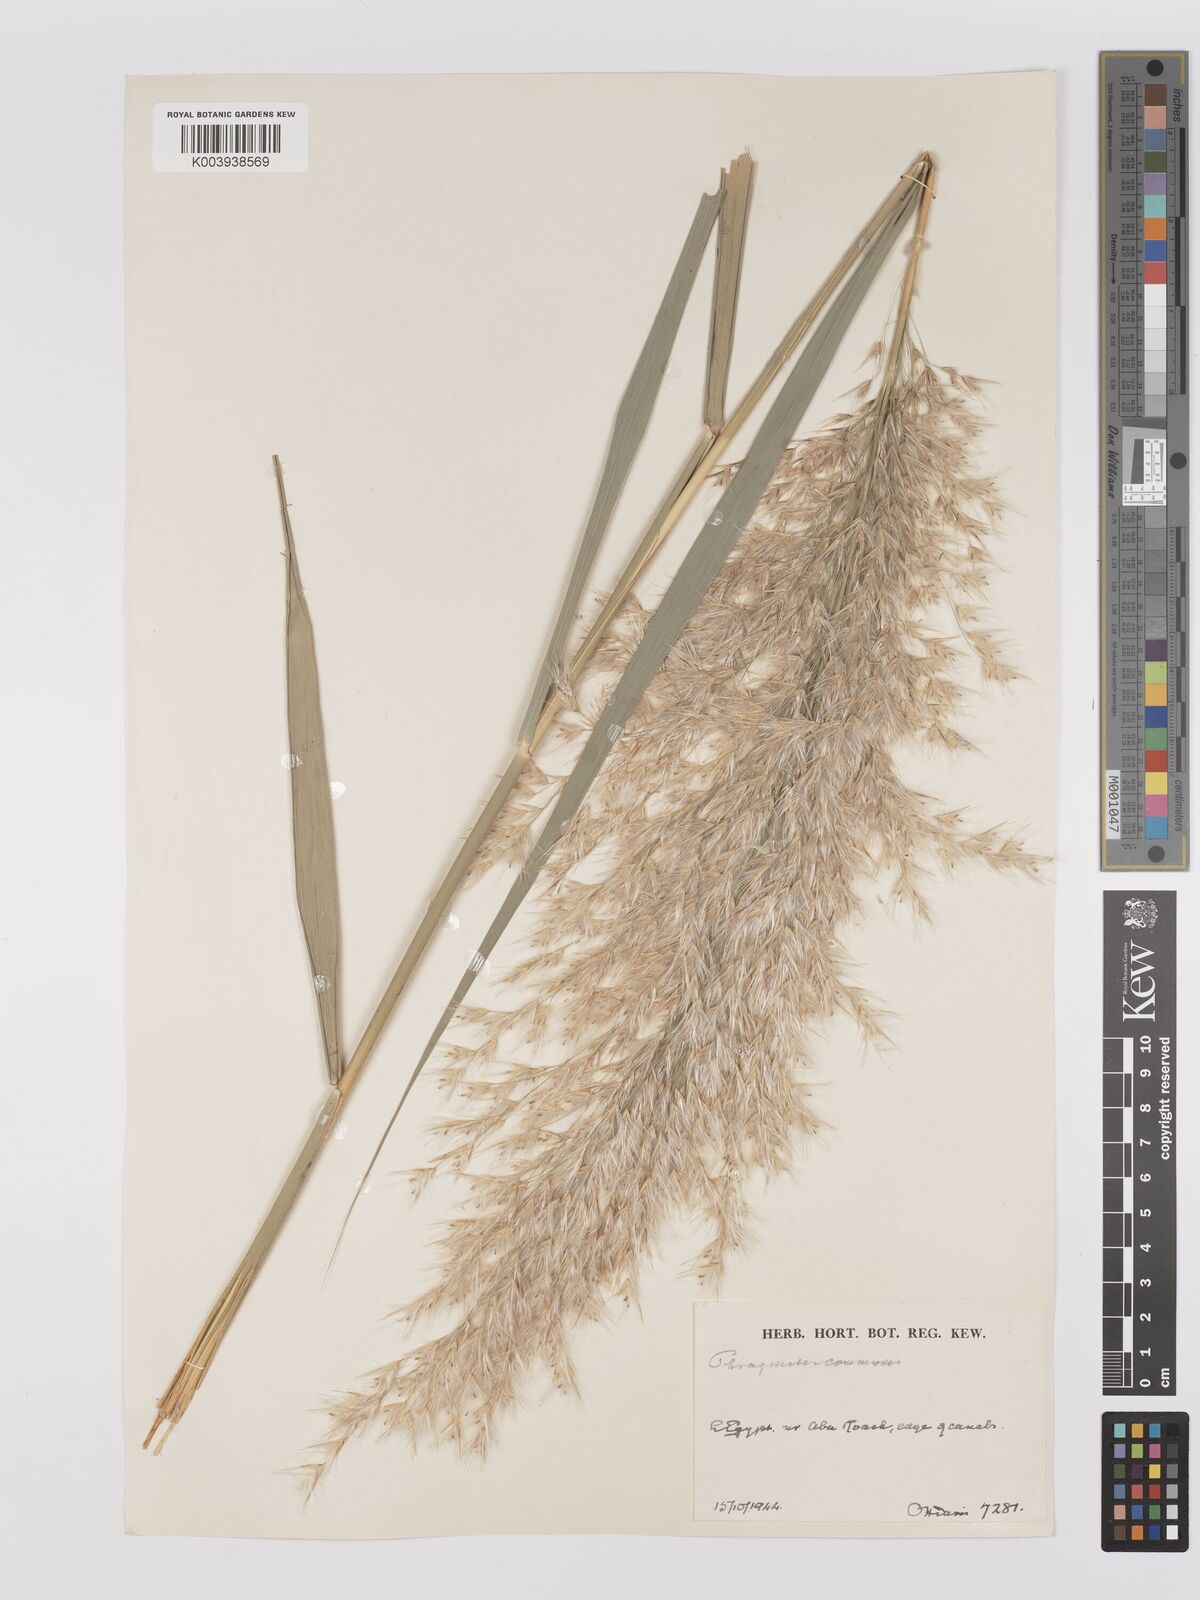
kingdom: Plantae
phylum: Tracheophyta
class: Liliopsida
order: Poales
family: Poaceae
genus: Phragmites
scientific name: Phragmites australis
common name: Common reed
